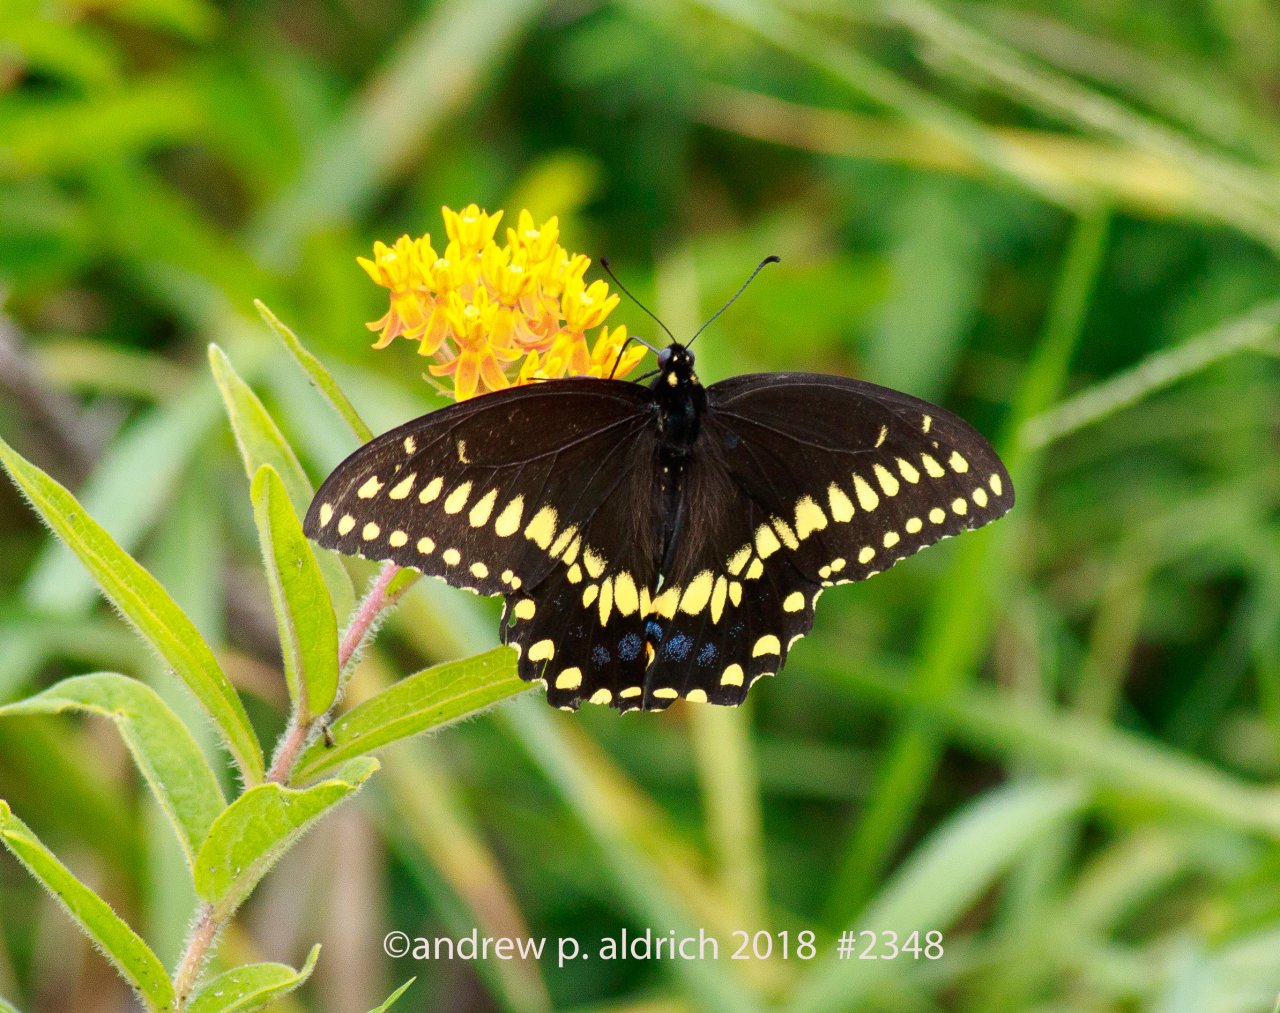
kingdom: Animalia
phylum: Arthropoda
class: Insecta
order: Lepidoptera
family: Papilionidae
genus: Papilio
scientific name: Papilio polyxenes
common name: Black Swallowtail
